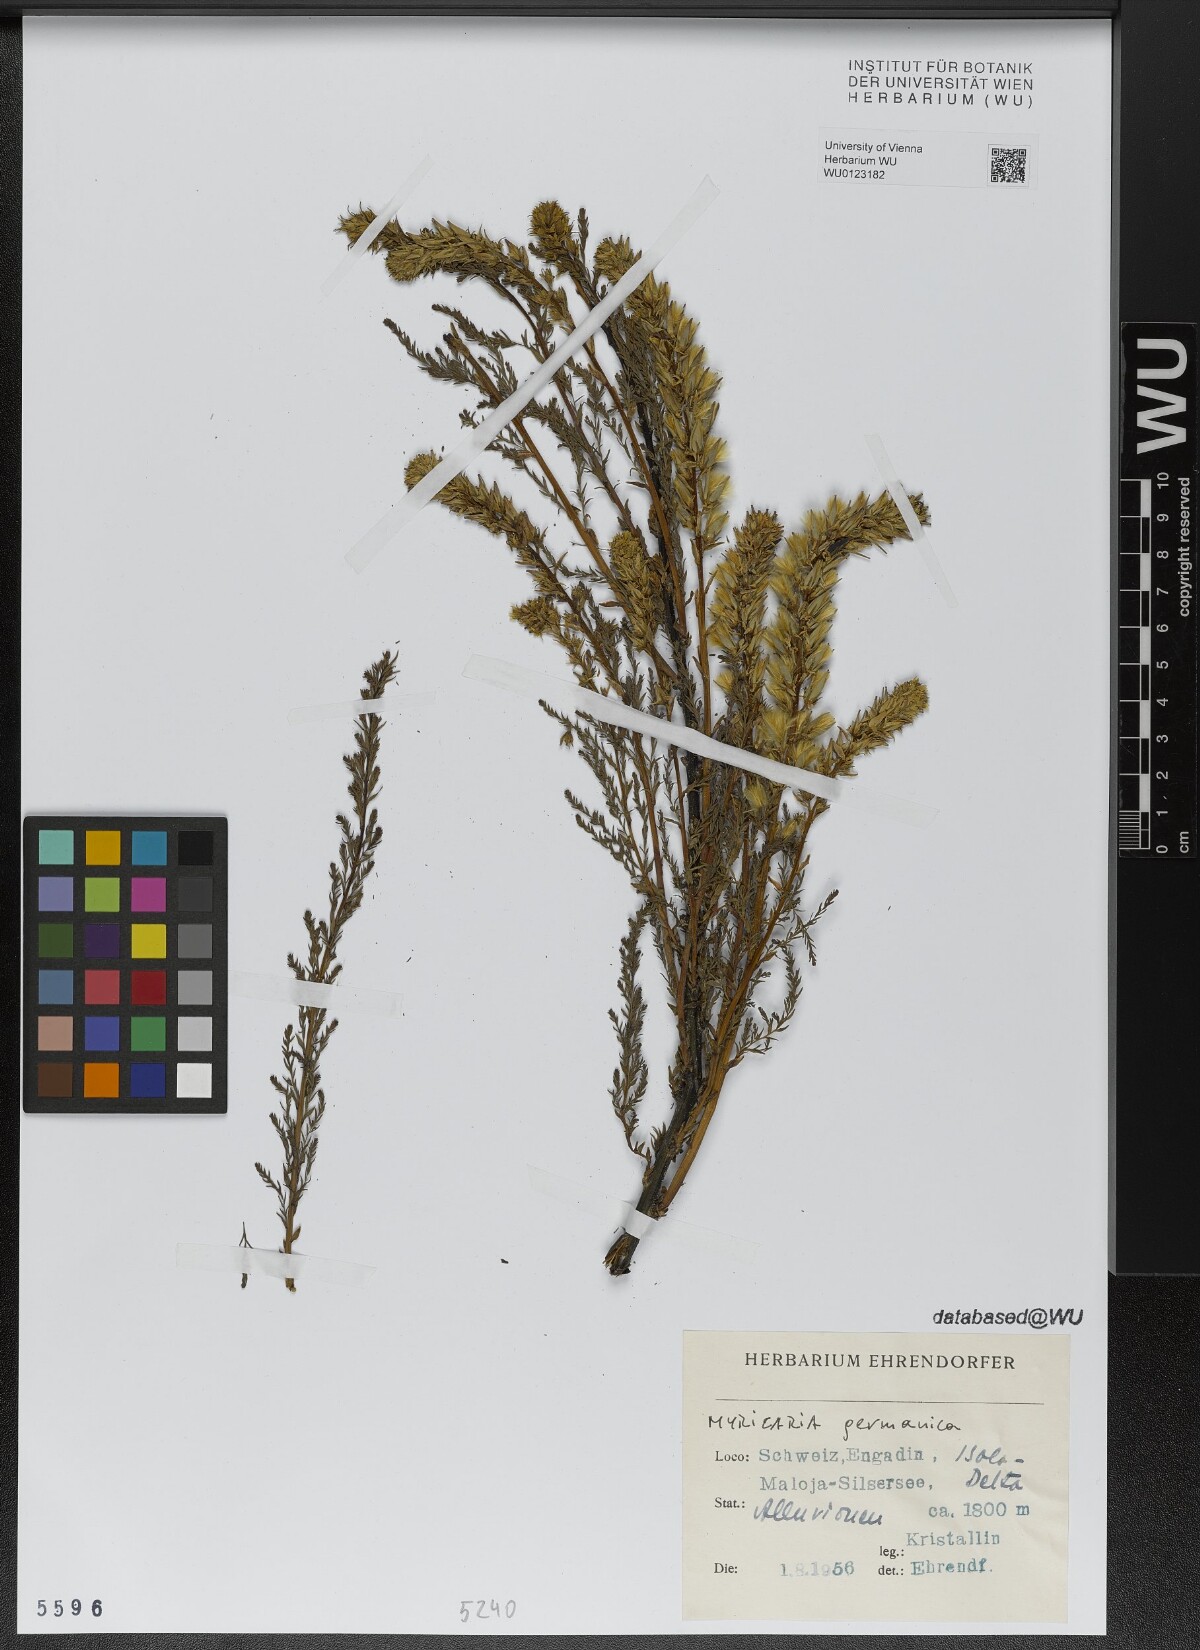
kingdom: Plantae
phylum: Tracheophyta
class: Magnoliopsida
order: Caryophyllales
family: Tamaricaceae
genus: Myricaria
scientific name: Myricaria germanica
